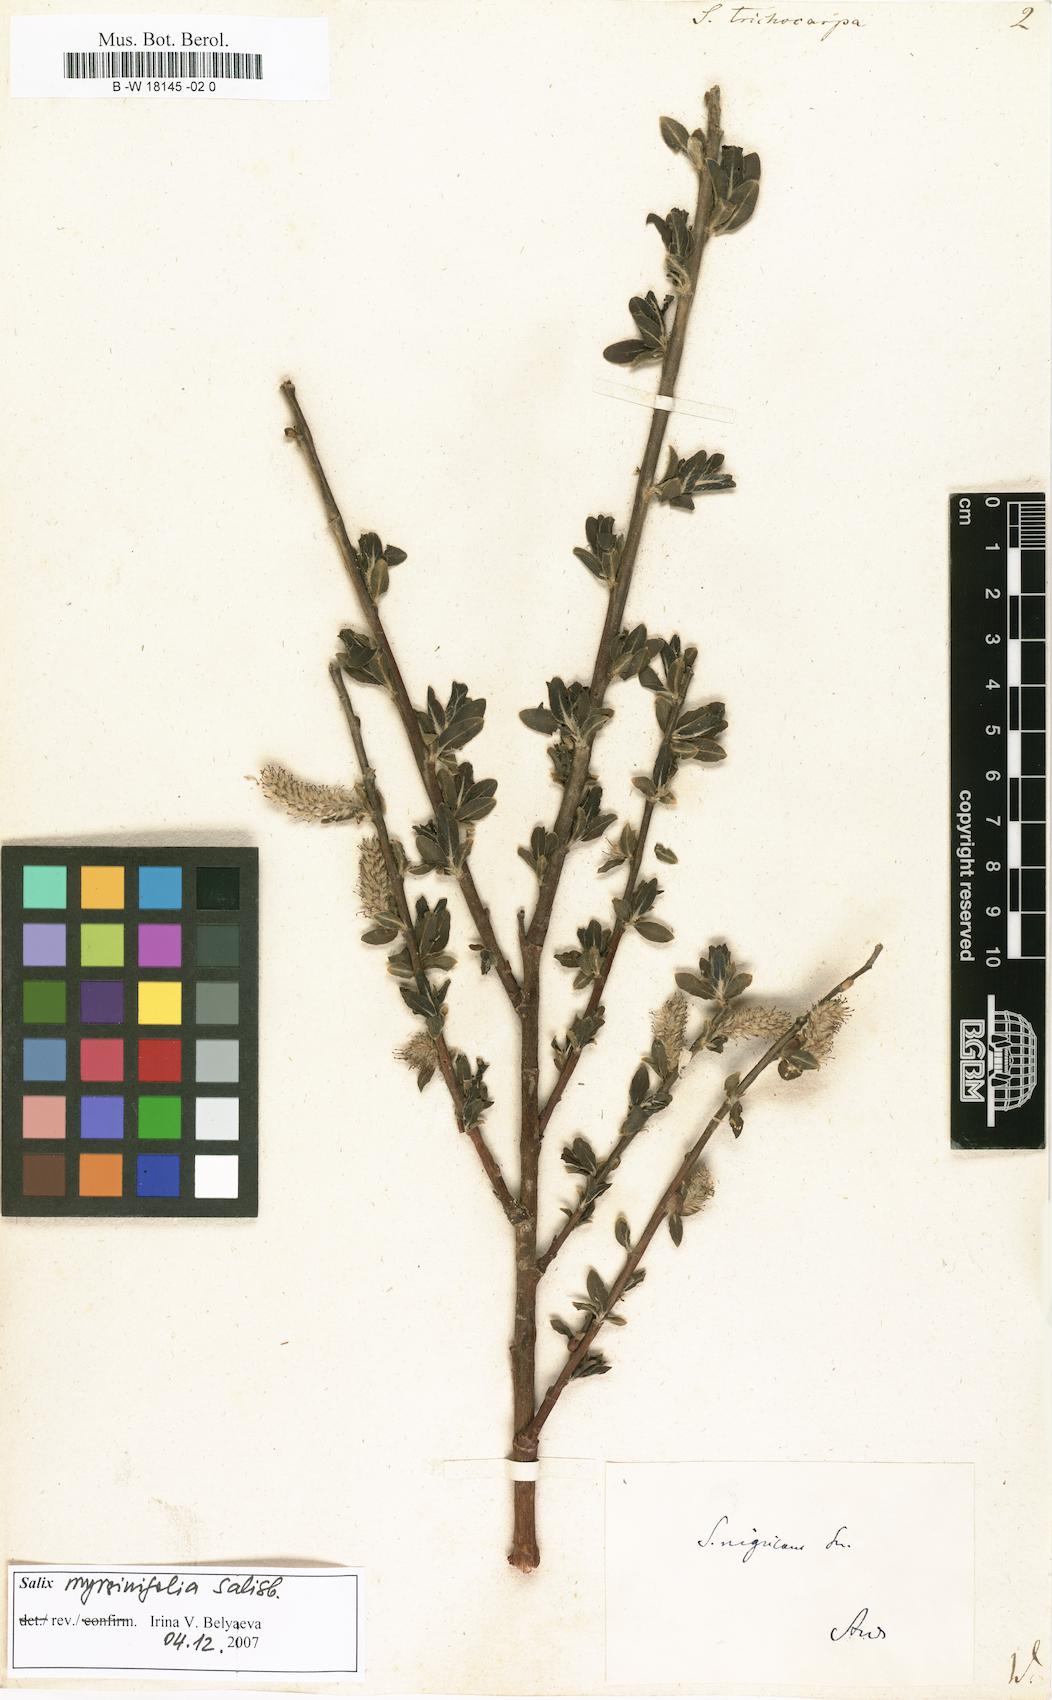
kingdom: Plantae
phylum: Tracheophyta
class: Magnoliopsida
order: Malpighiales
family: Salicaceae
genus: Salix
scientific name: Salix trichocarpa
